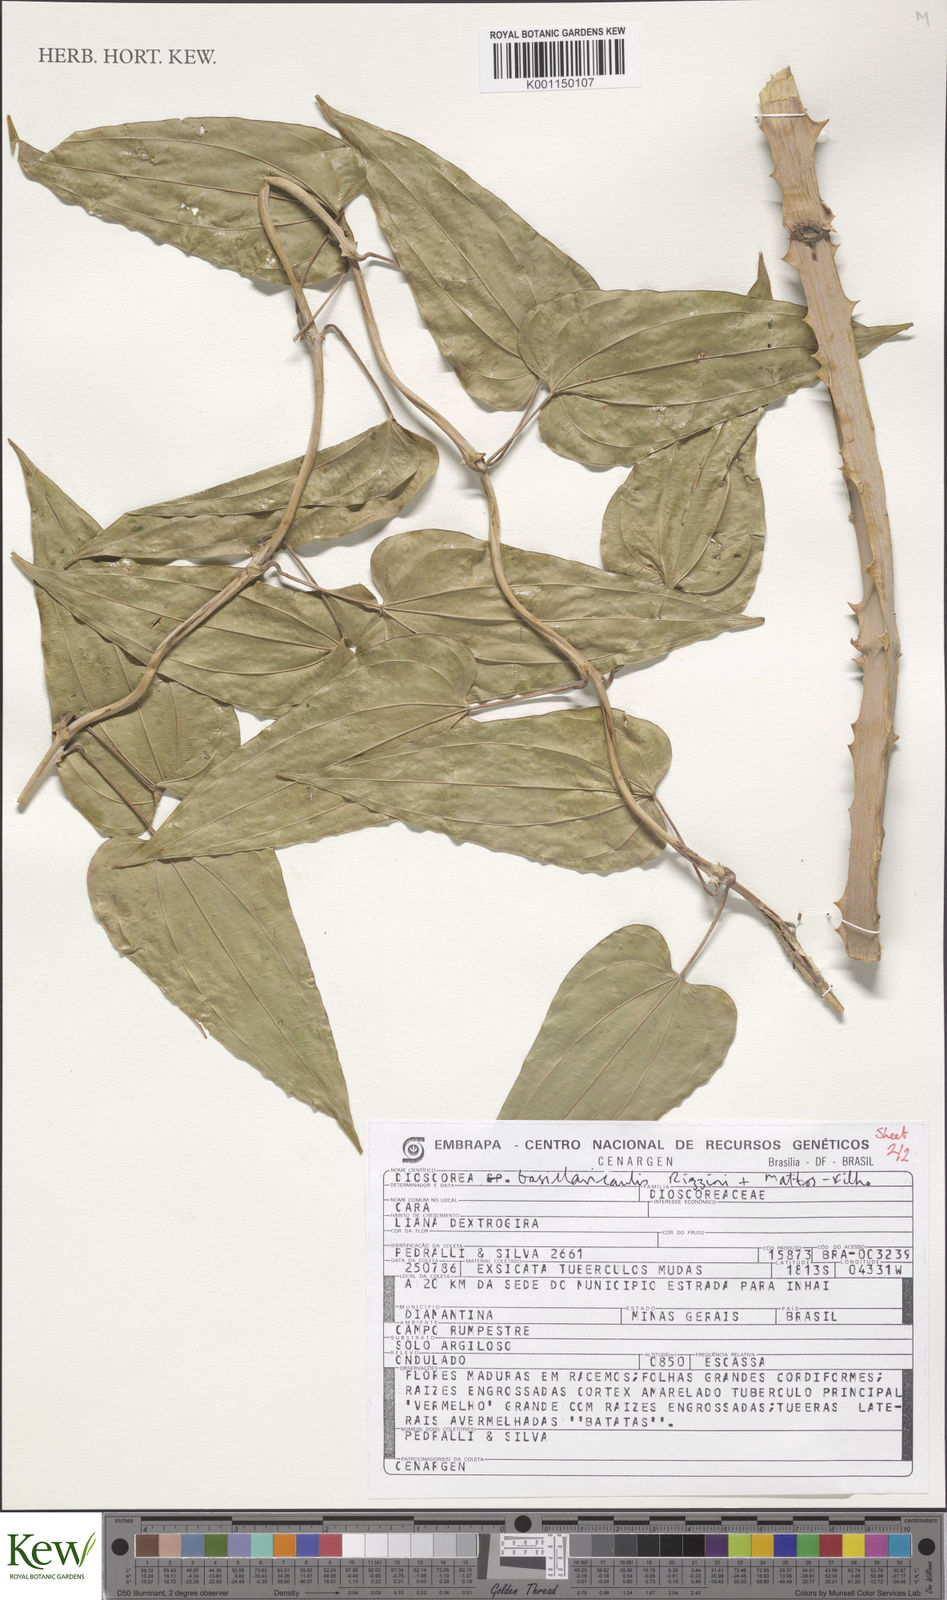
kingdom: Plantae
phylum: Tracheophyta
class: Liliopsida
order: Dioscoreales
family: Dioscoreaceae
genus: Dioscorea
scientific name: Dioscorea basiclavicaulis
